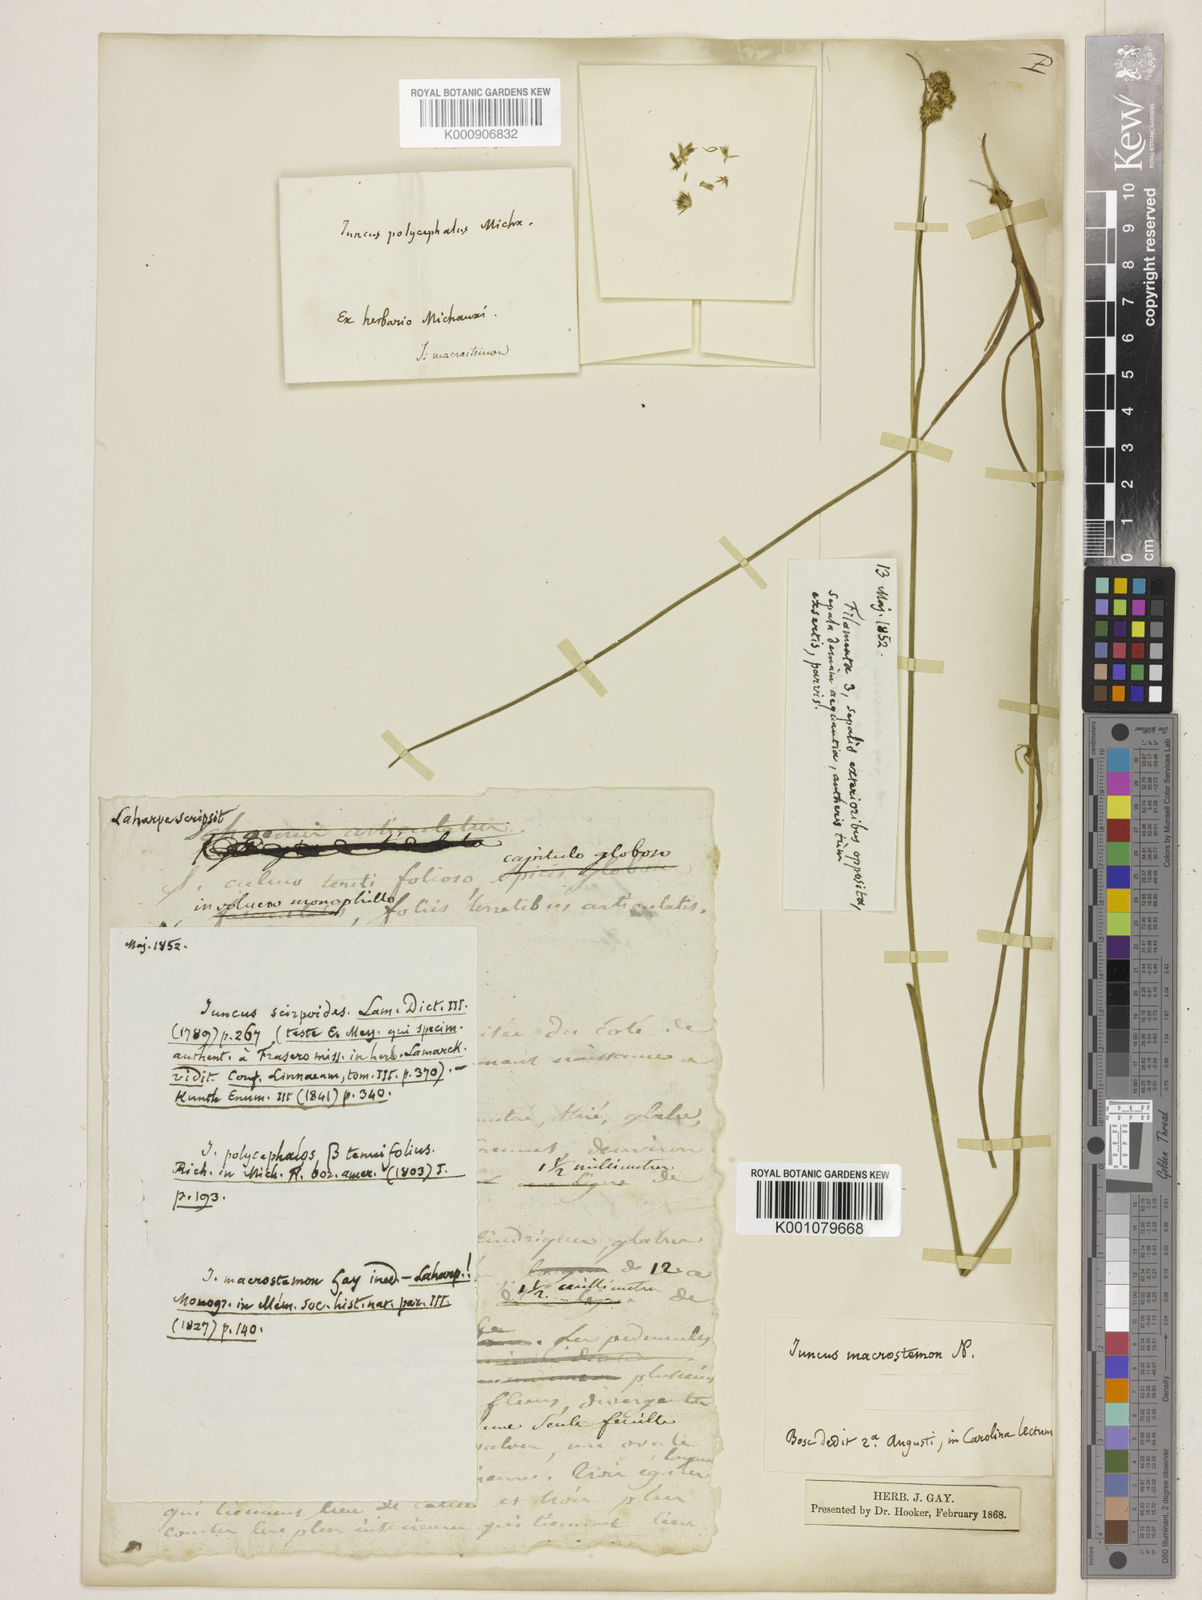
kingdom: Plantae
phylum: Tracheophyta
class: Liliopsida
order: Poales
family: Juncaceae
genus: Juncus
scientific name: Juncus scirpoides
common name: Needlepod rush
